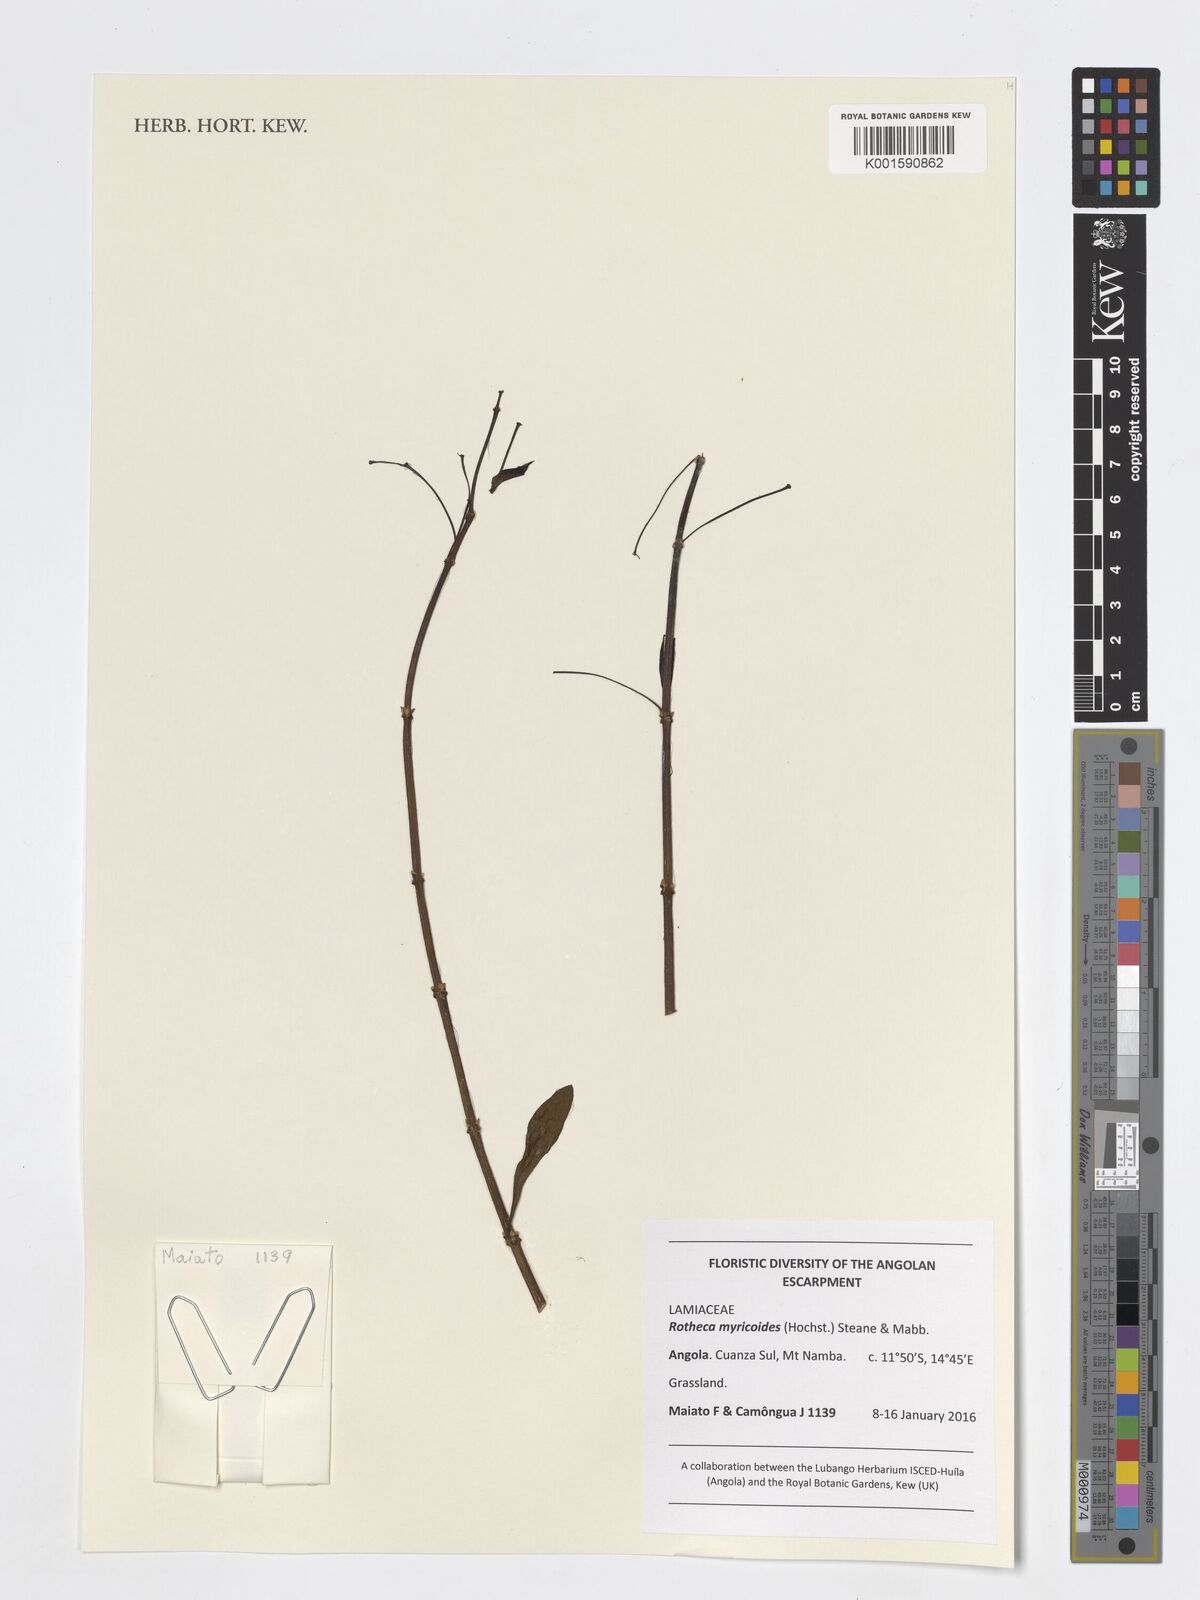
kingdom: Plantae
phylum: Tracheophyta
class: Magnoliopsida
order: Lamiales
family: Lamiaceae
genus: Rotheca
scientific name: Rotheca myricoides
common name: Cats-whiskers
